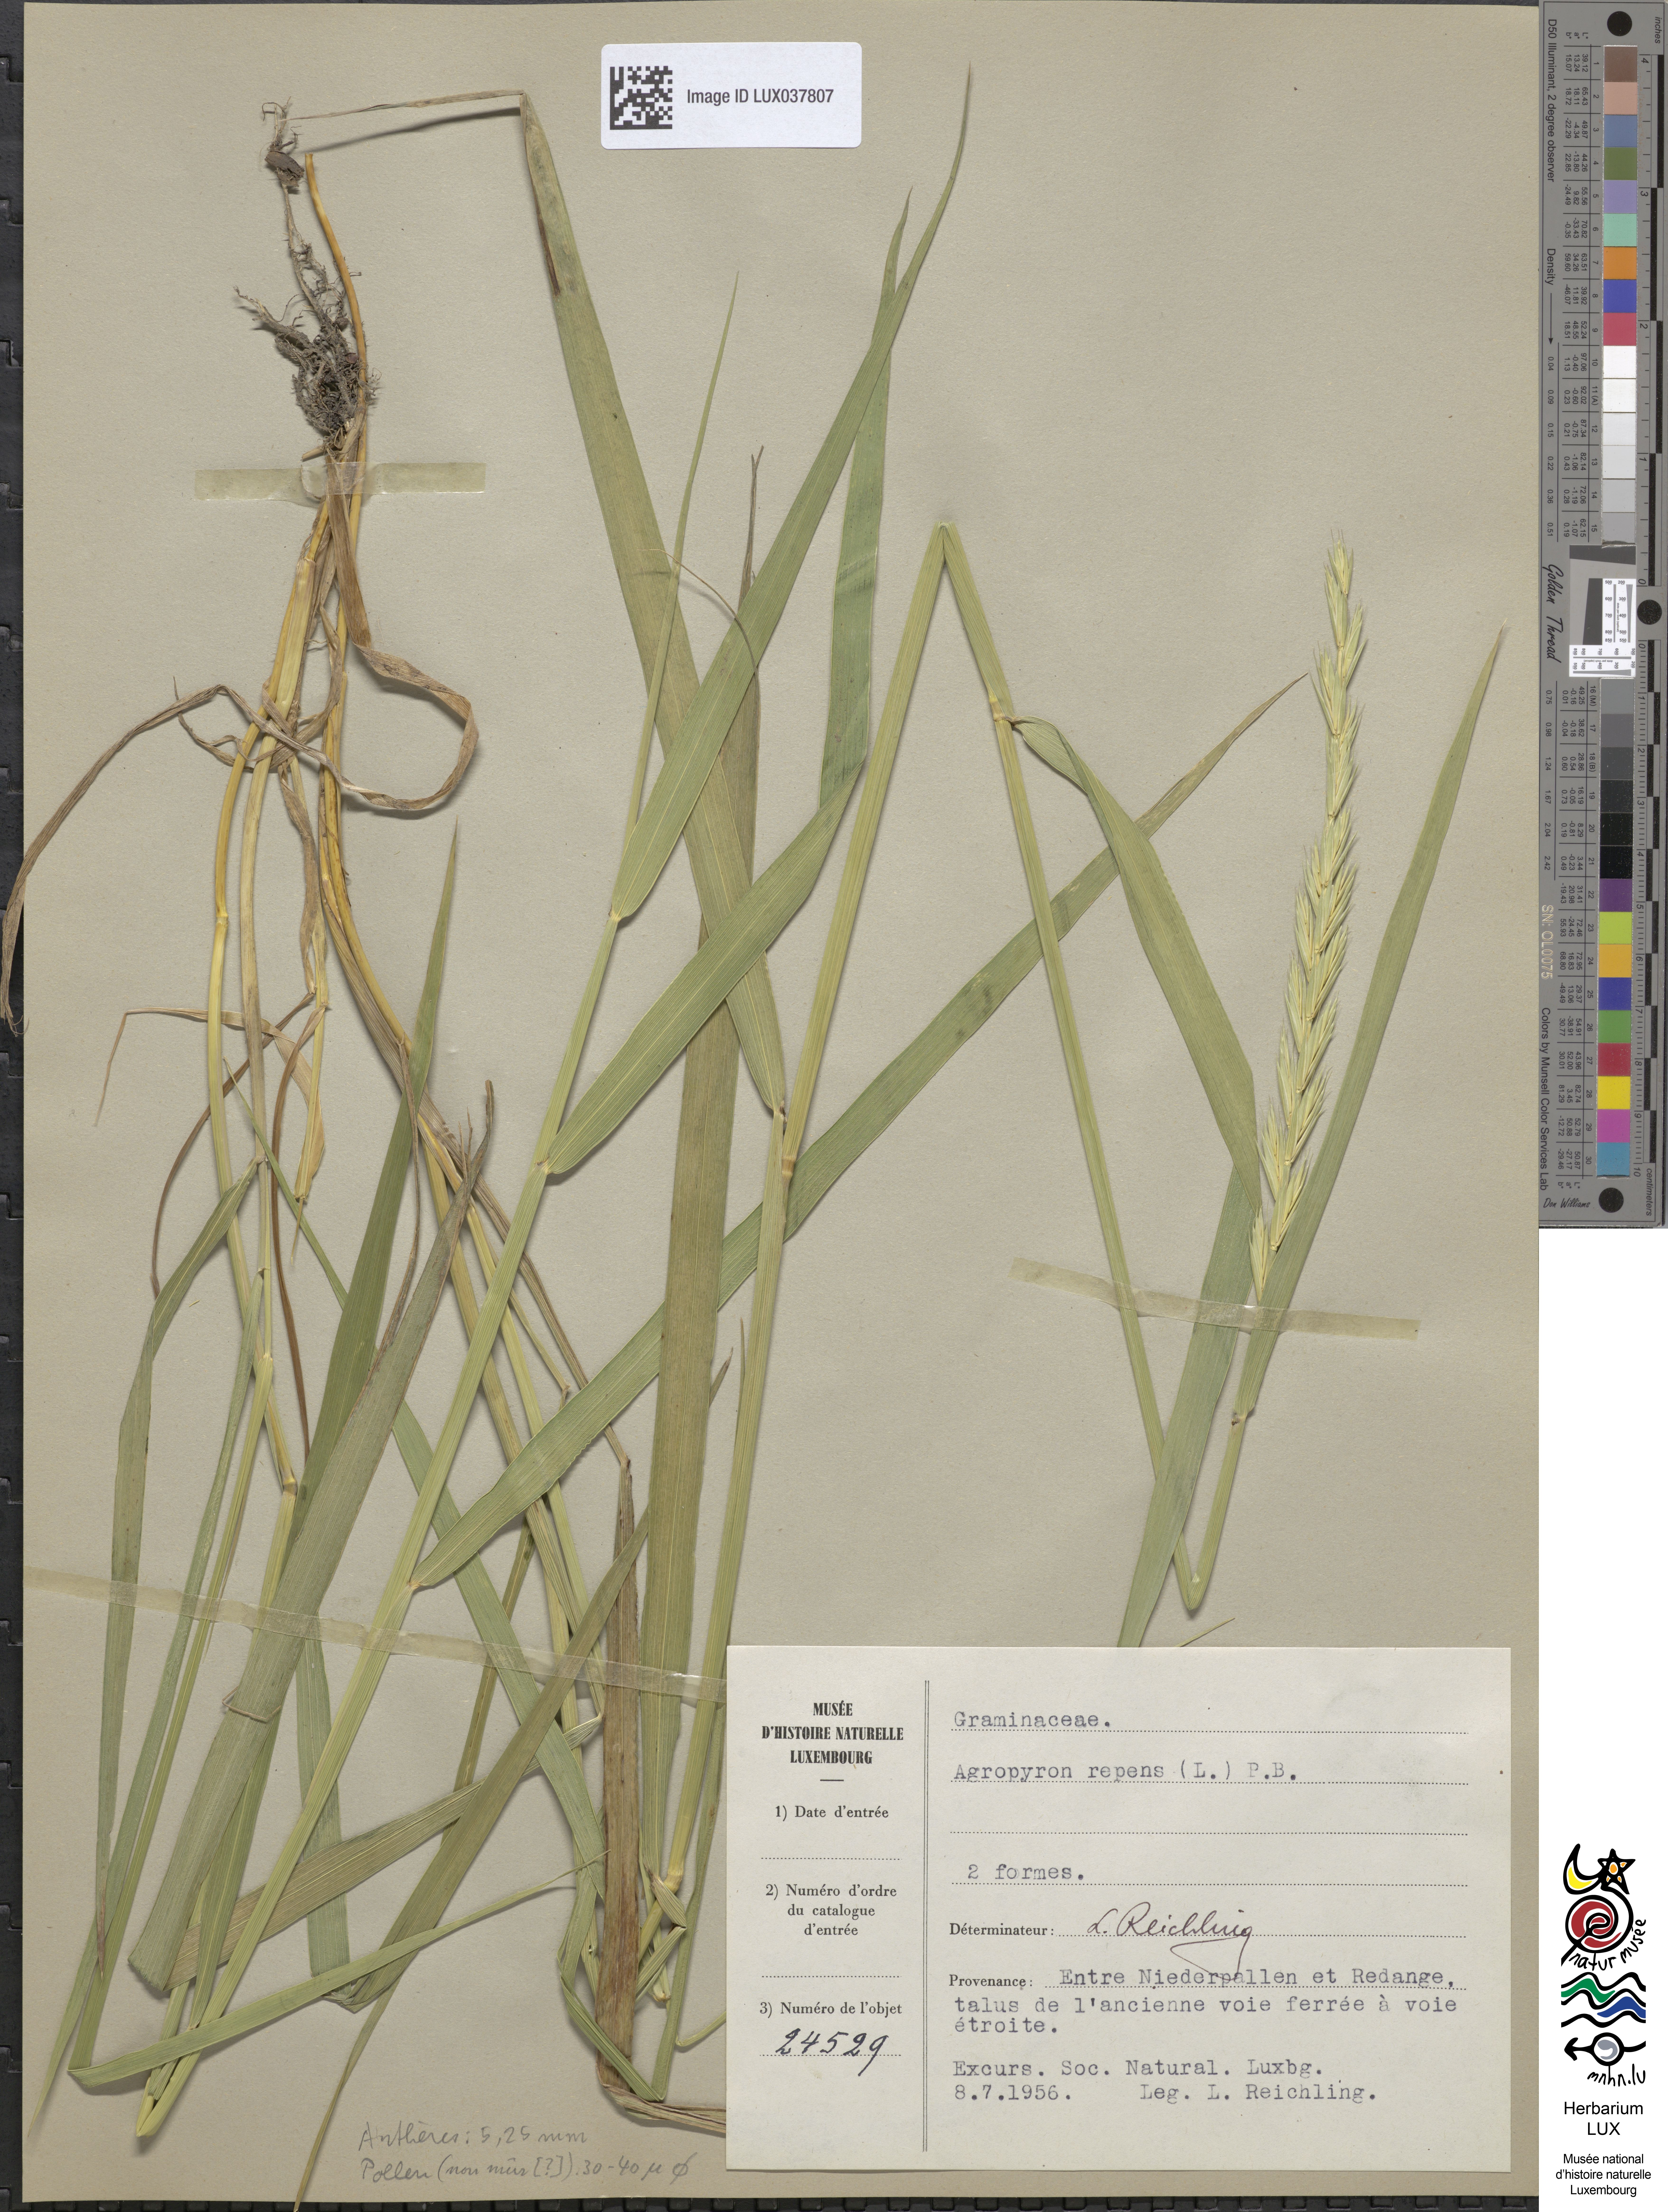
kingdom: Plantae
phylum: Tracheophyta
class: Liliopsida
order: Poales
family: Poaceae
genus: Elymus
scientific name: Elymus repens
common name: Quackgrass
